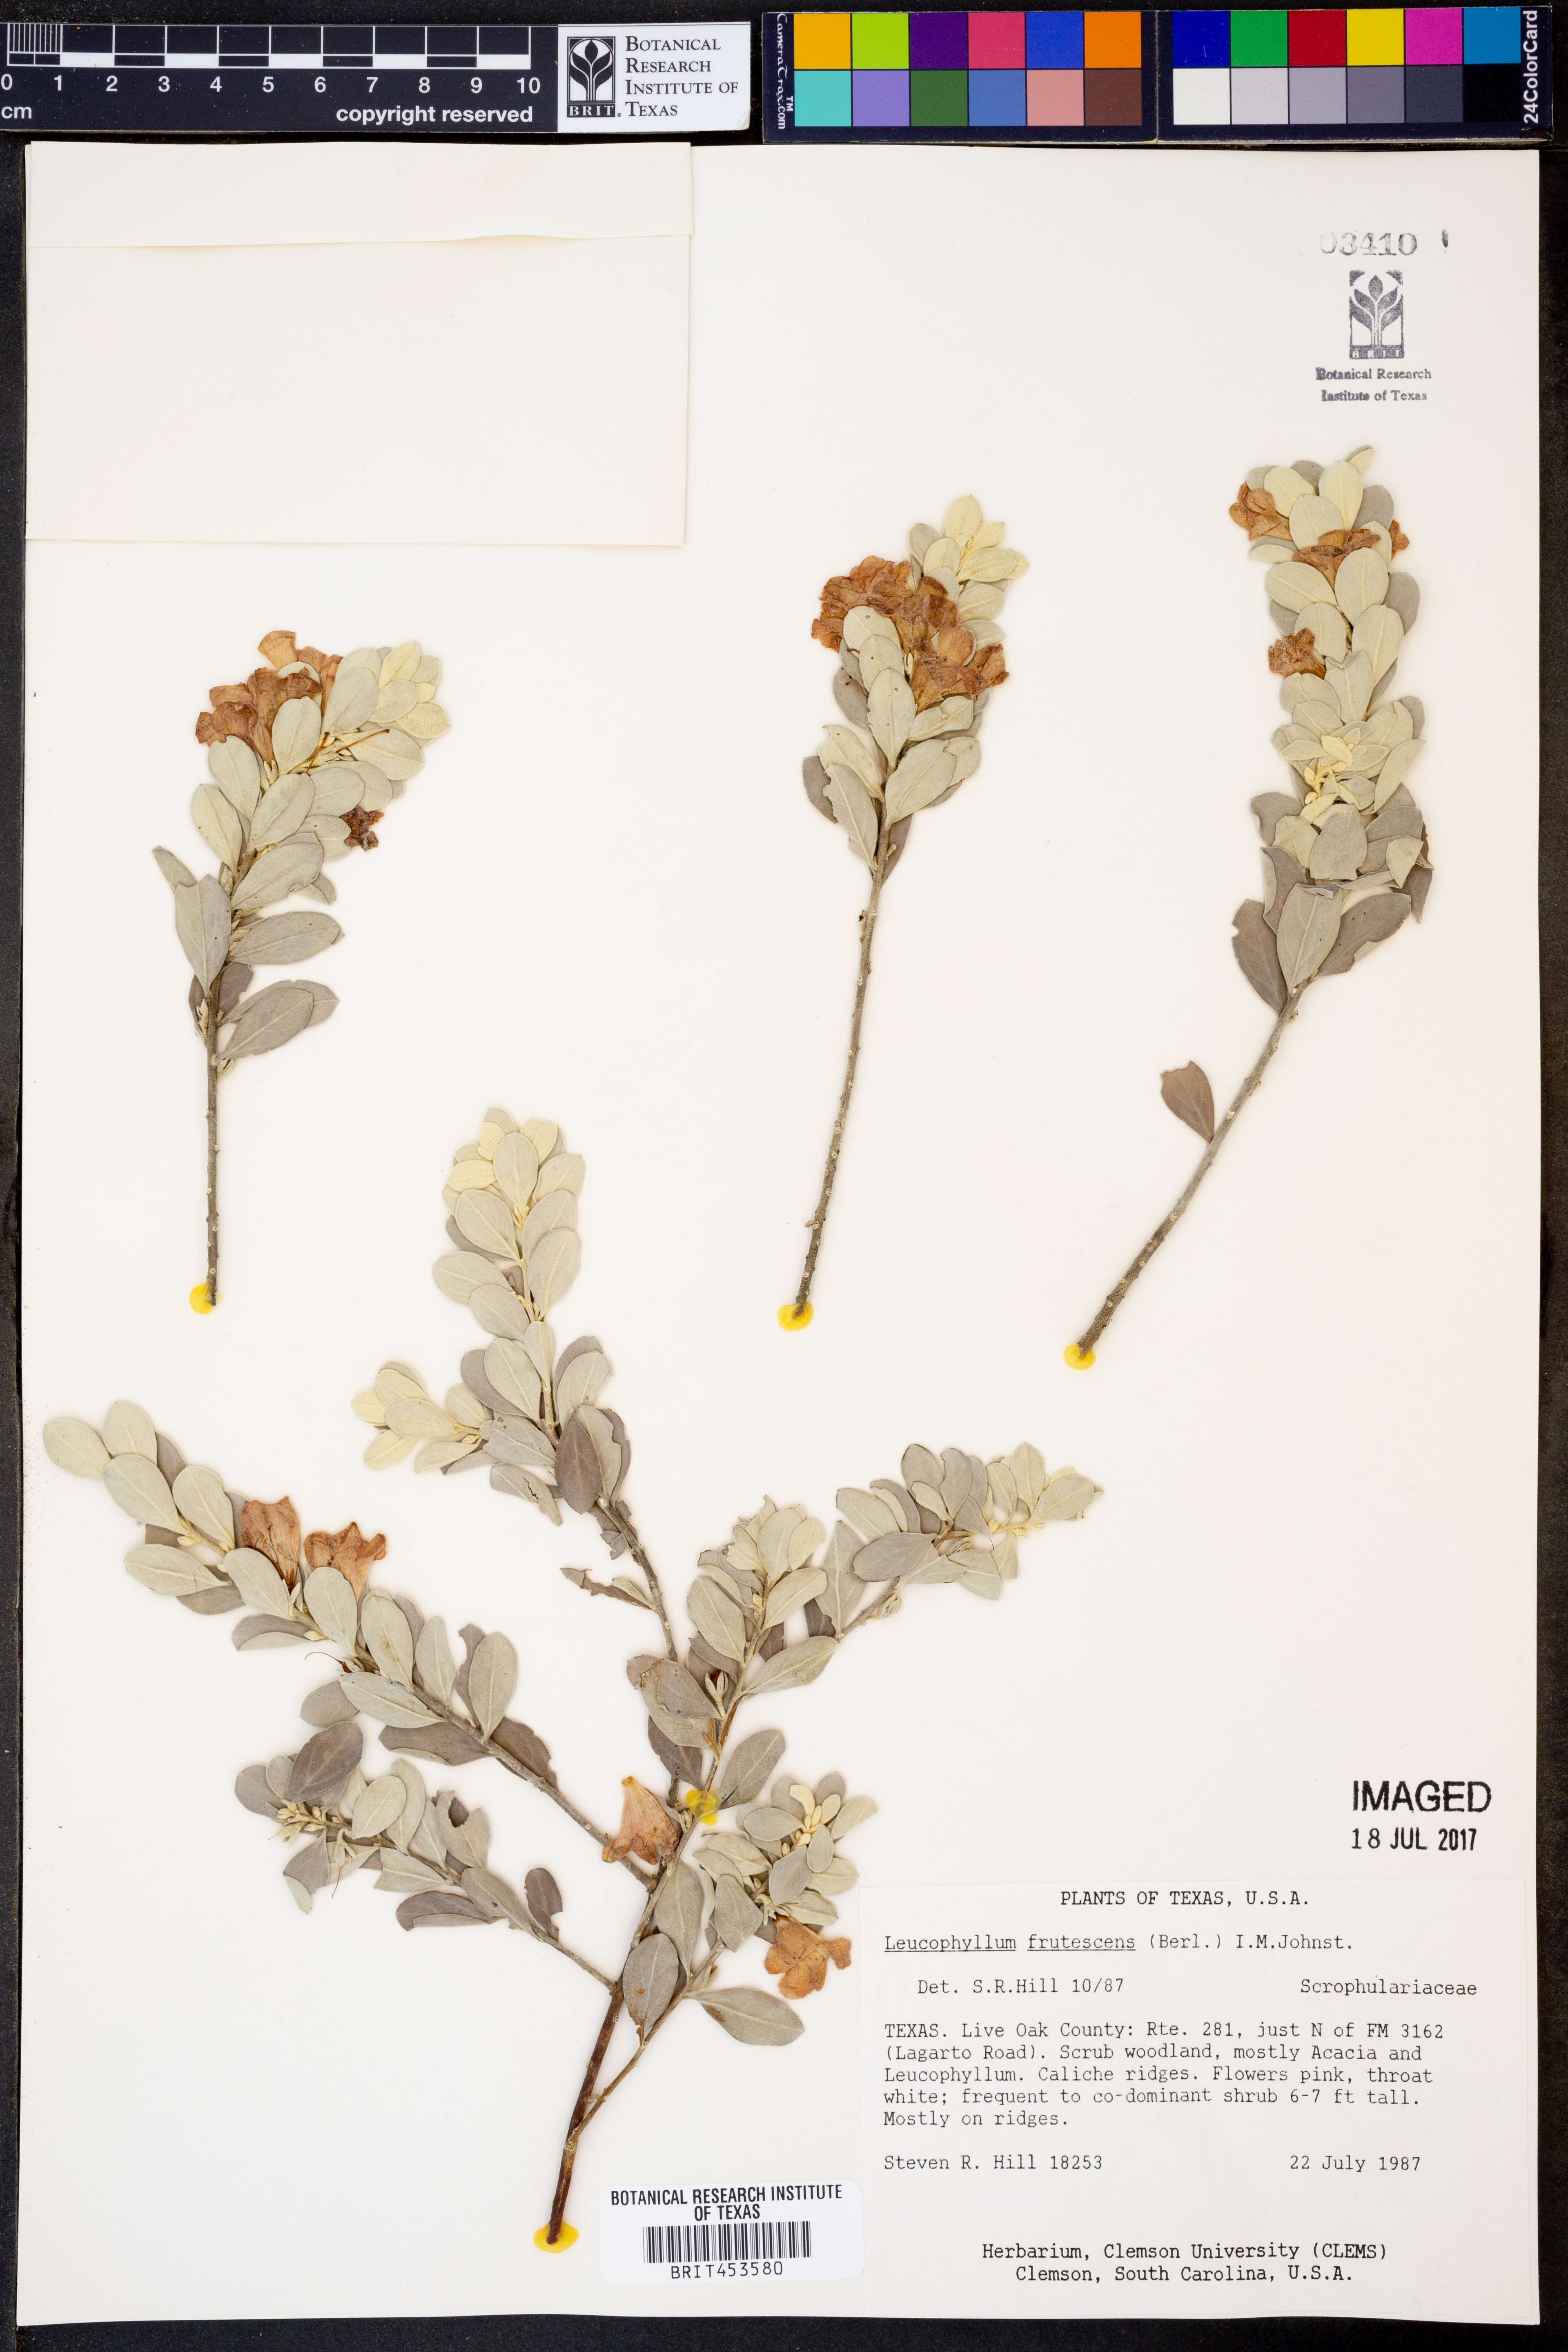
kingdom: Plantae
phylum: Tracheophyta
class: Magnoliopsida
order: Lamiales
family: Scrophulariaceae
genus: Leucophyllum
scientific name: Leucophyllum frutescens
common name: Texas silverleaf
